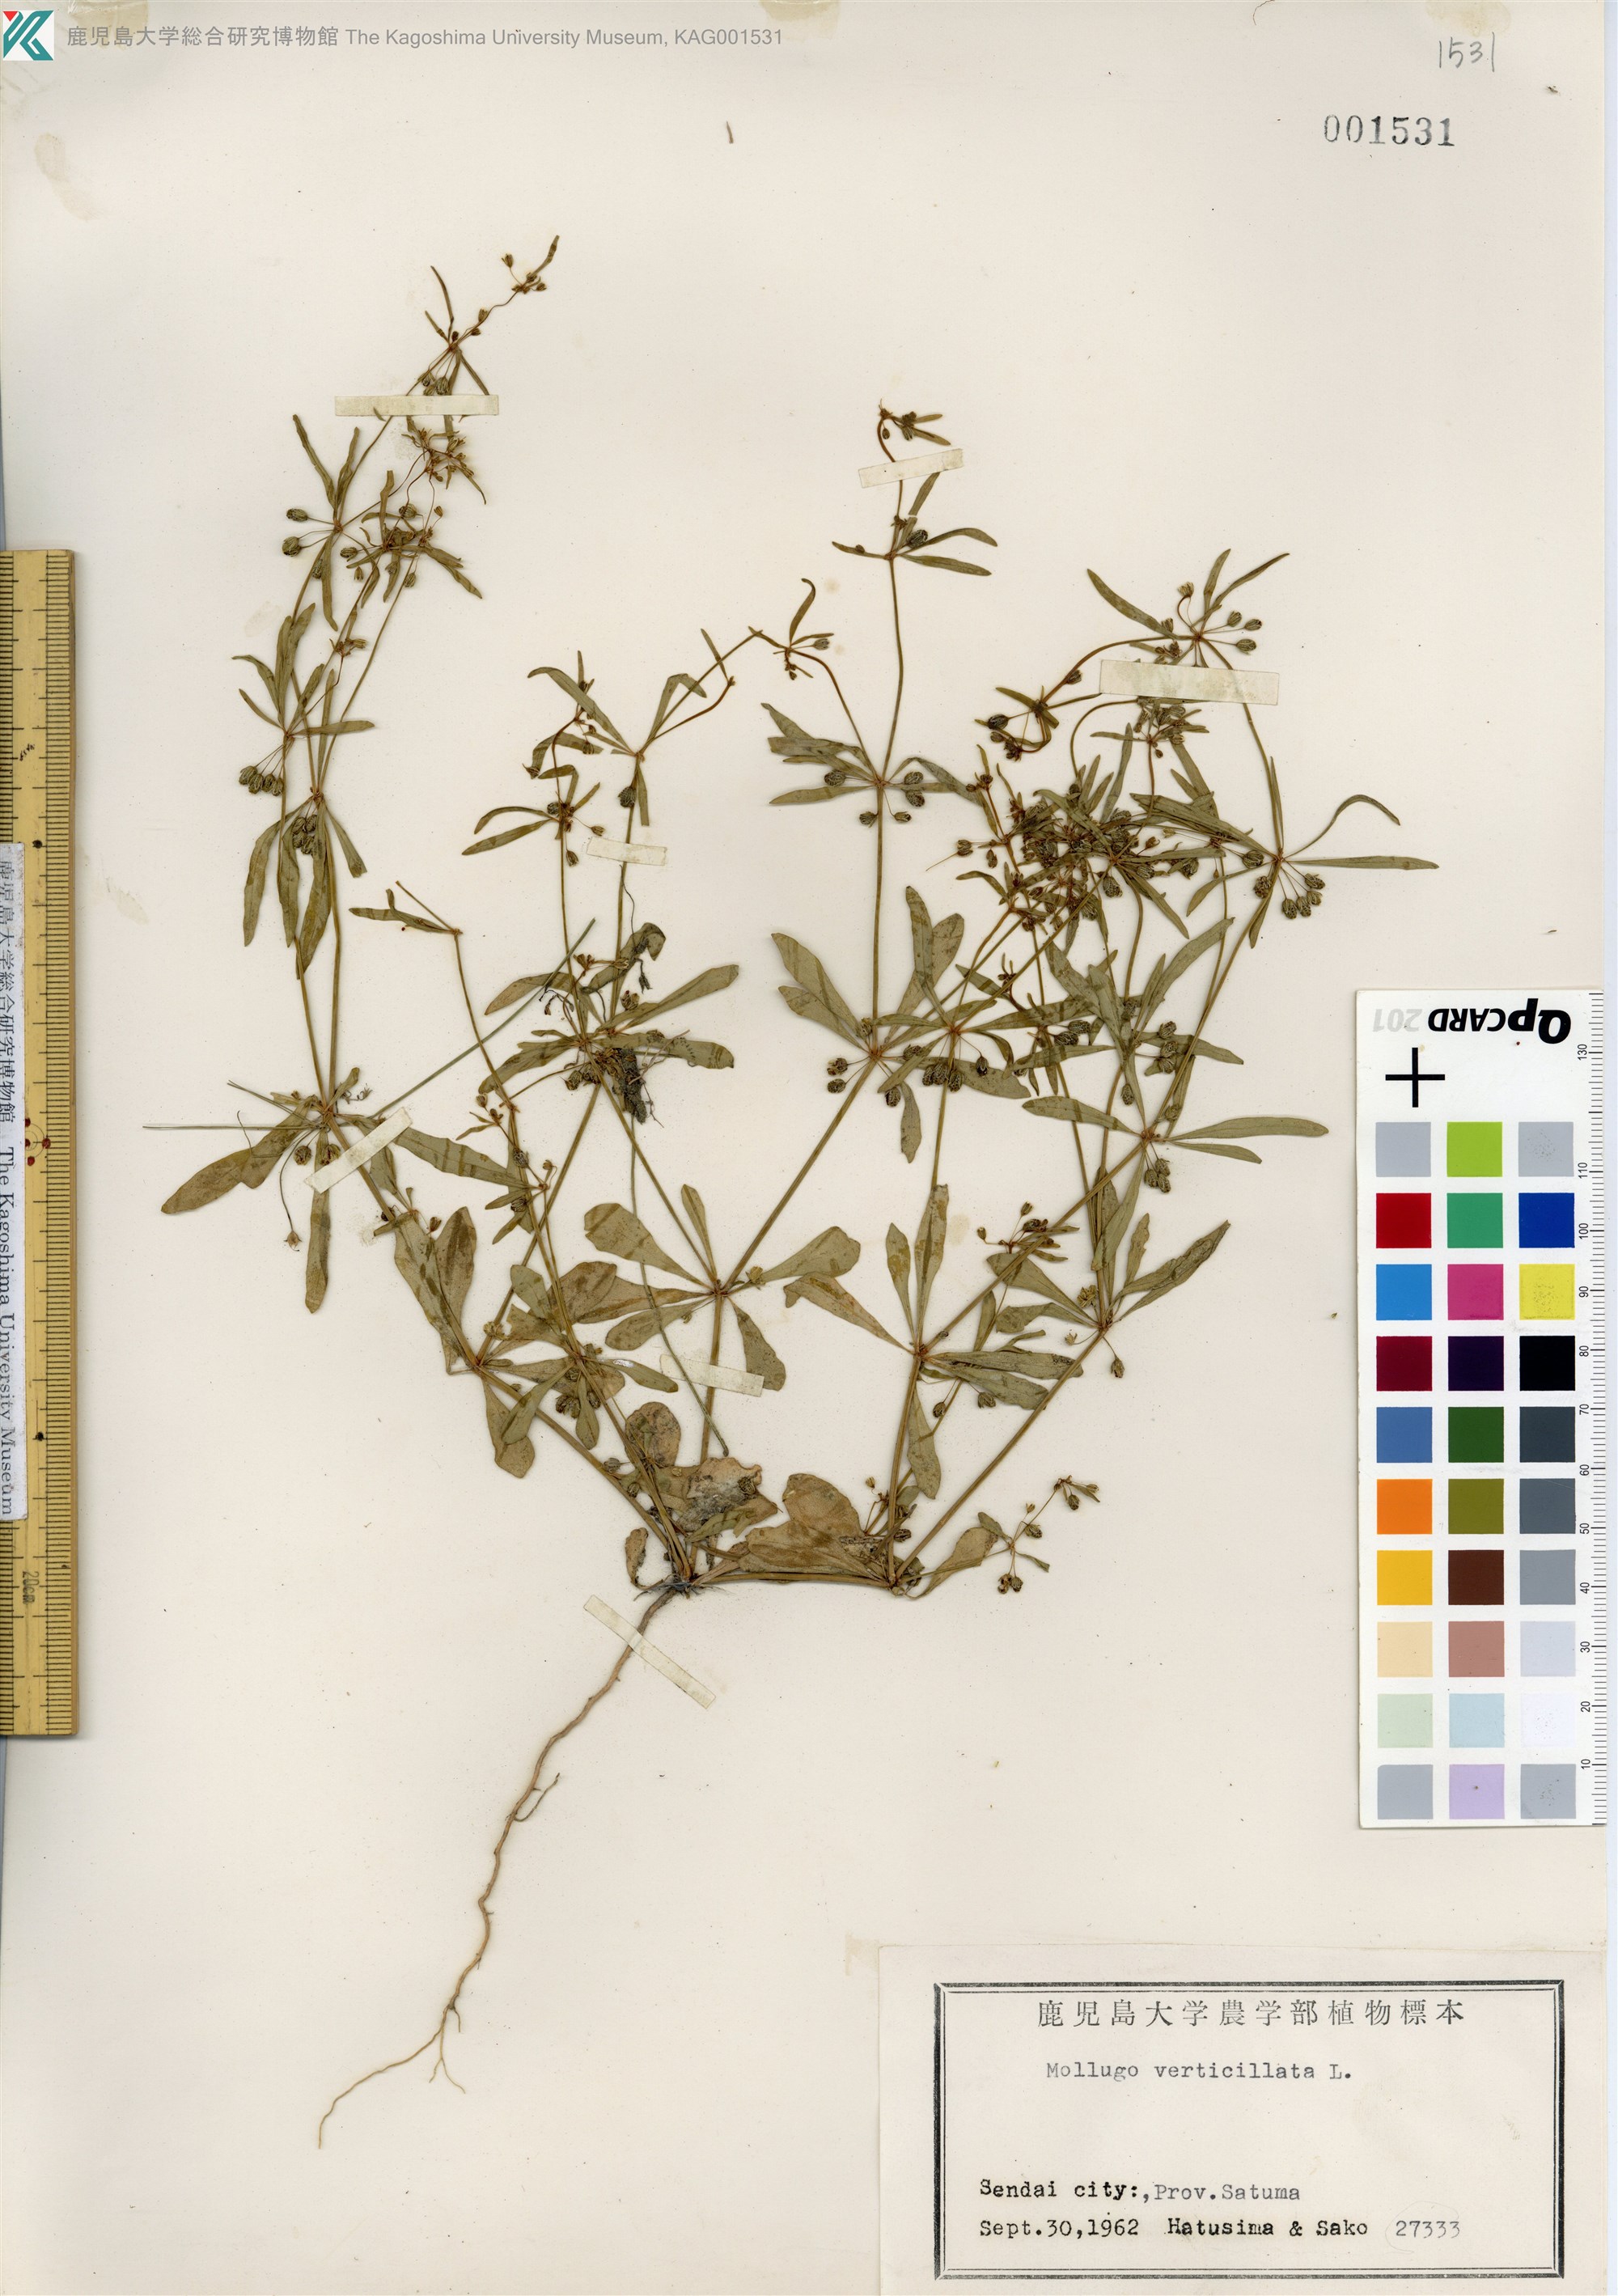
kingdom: Plantae
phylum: Tracheophyta
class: Magnoliopsida
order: Caryophyllales
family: Molluginaceae
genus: Mollugo
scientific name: Mollugo verticillata
